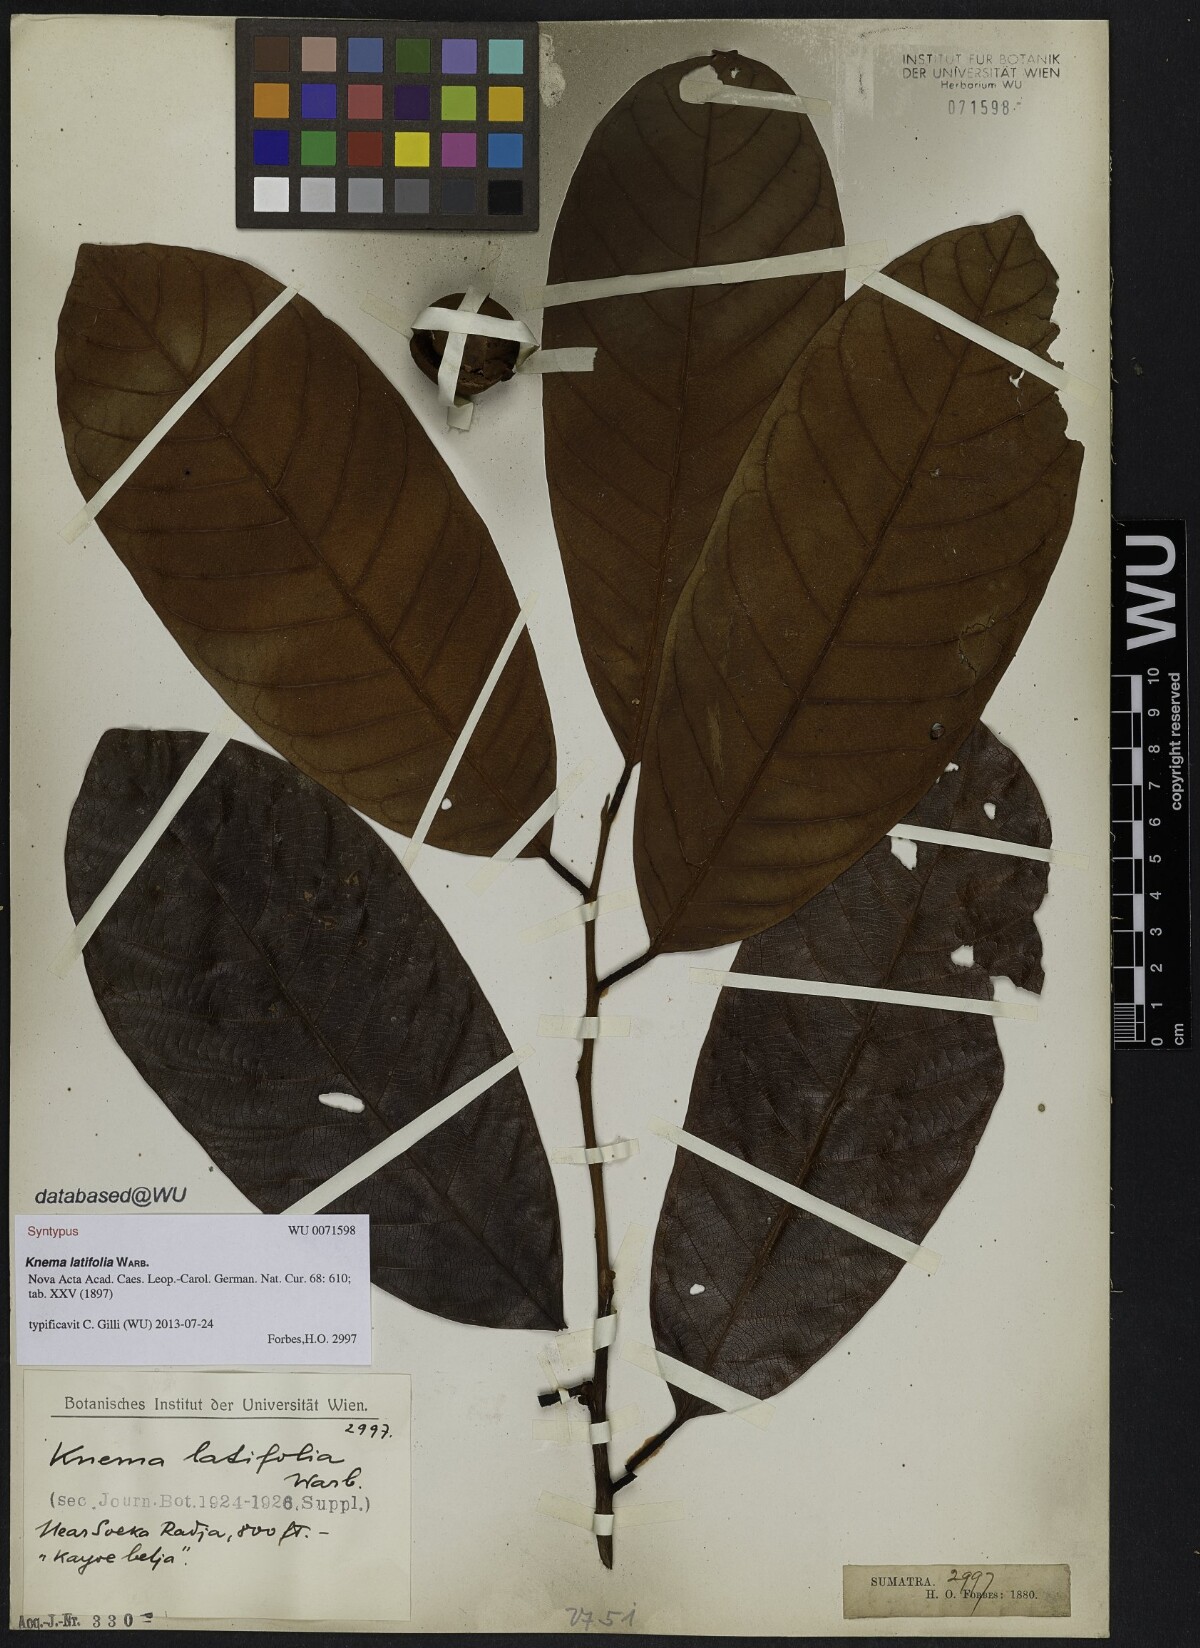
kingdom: Plantae
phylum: Tracheophyta
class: Magnoliopsida
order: Magnoliales
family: Myristicaceae
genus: Knema
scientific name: Knema latifolia
